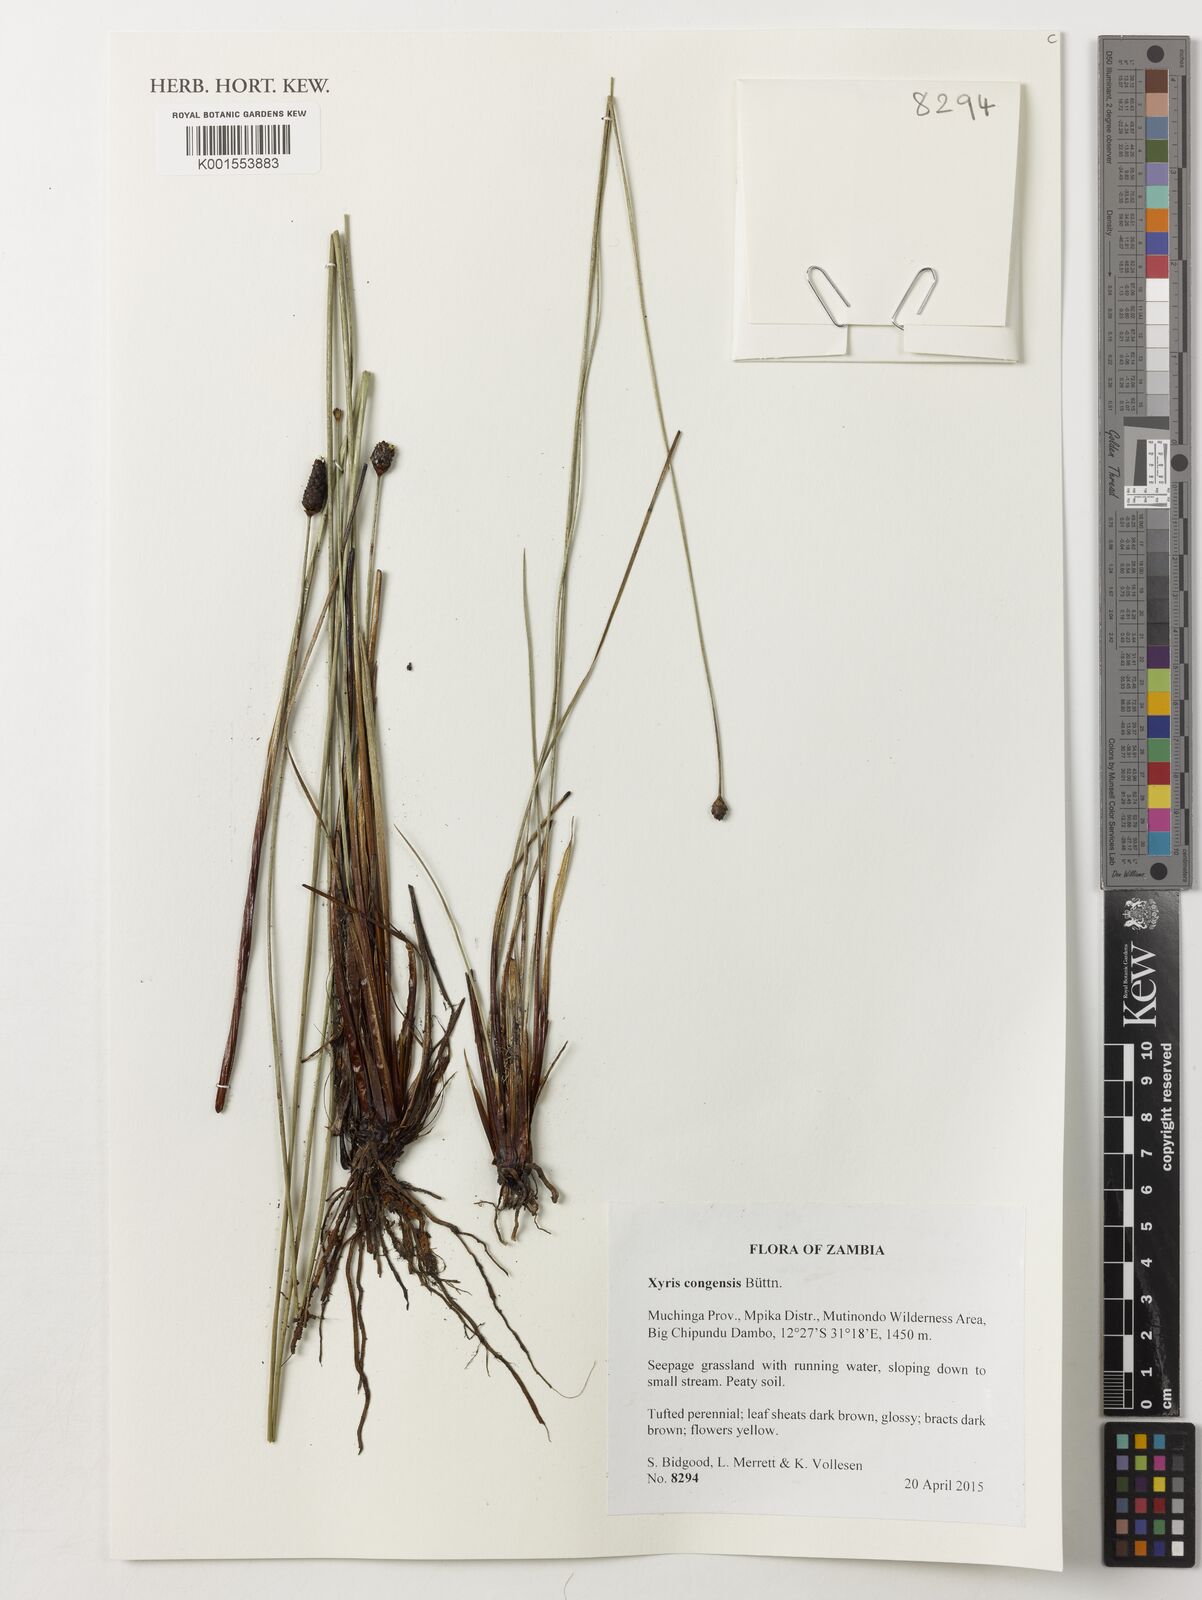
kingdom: Plantae
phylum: Tracheophyta
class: Liliopsida
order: Poales
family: Xyridaceae
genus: Xyris
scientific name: Xyris congensis
